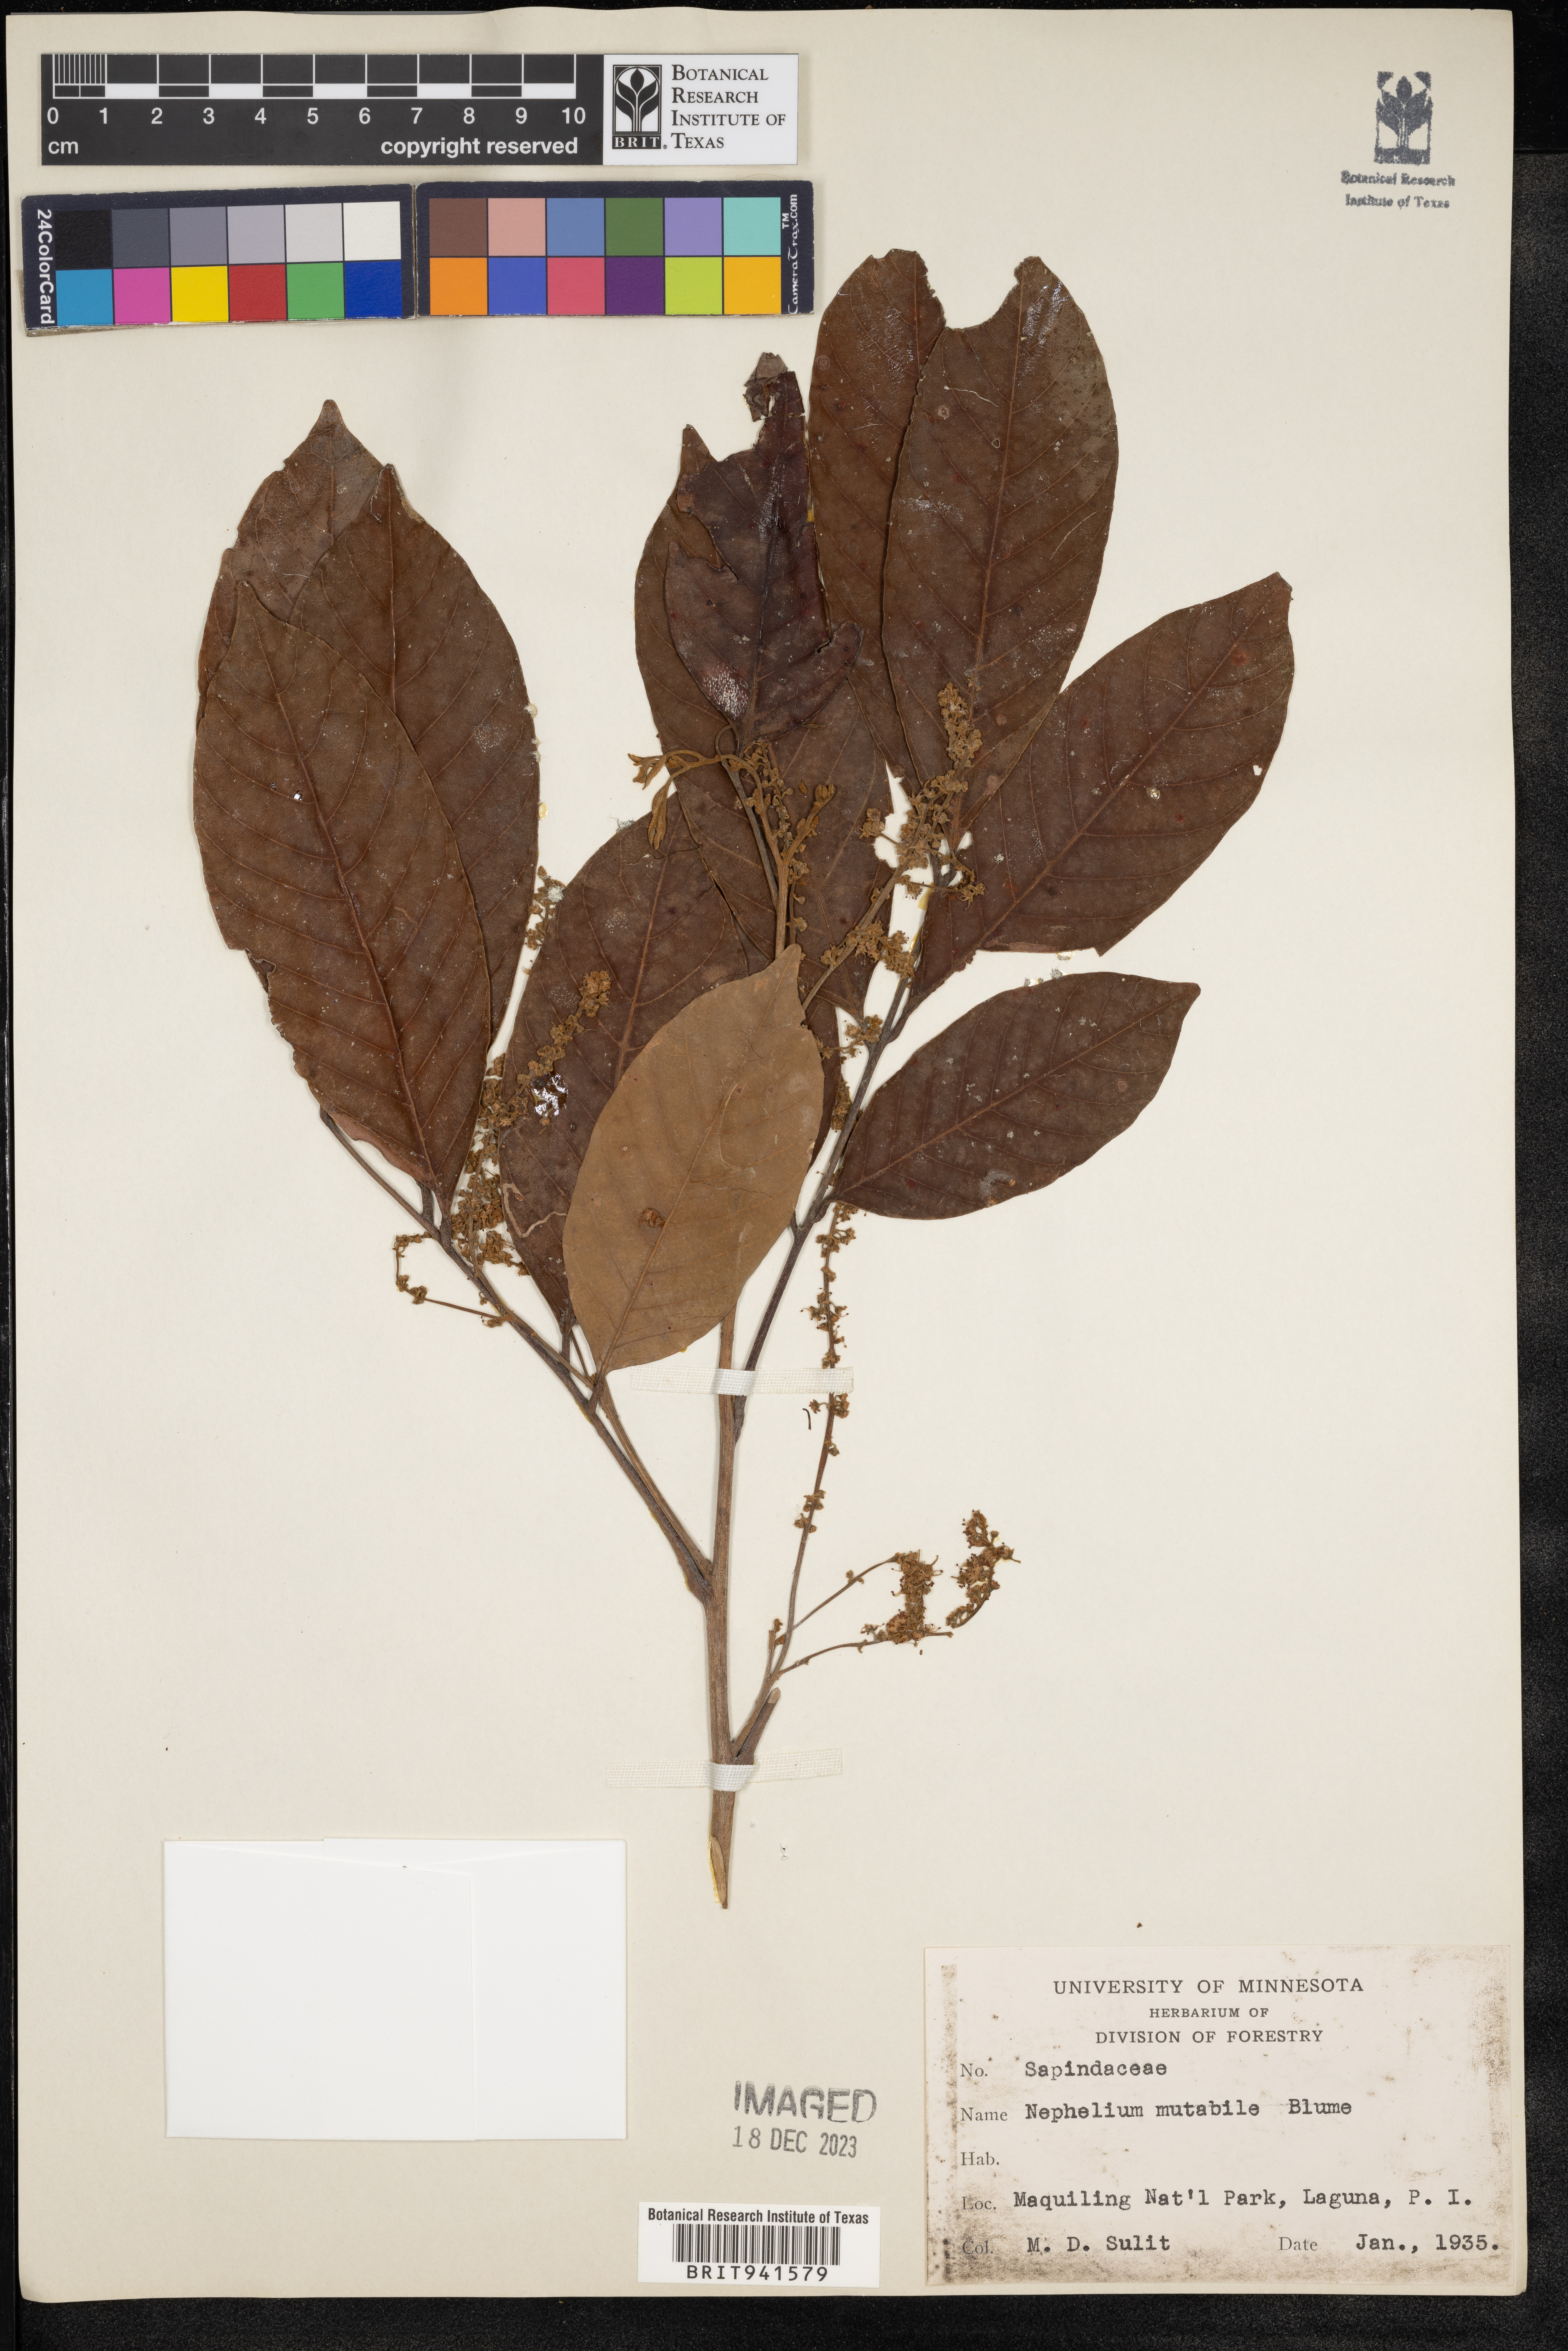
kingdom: Plantae
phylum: Tracheophyta
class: Magnoliopsida
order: Sapindales
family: Sapindaceae
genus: Nephelium
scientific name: Nephelium ramboutan-ake
